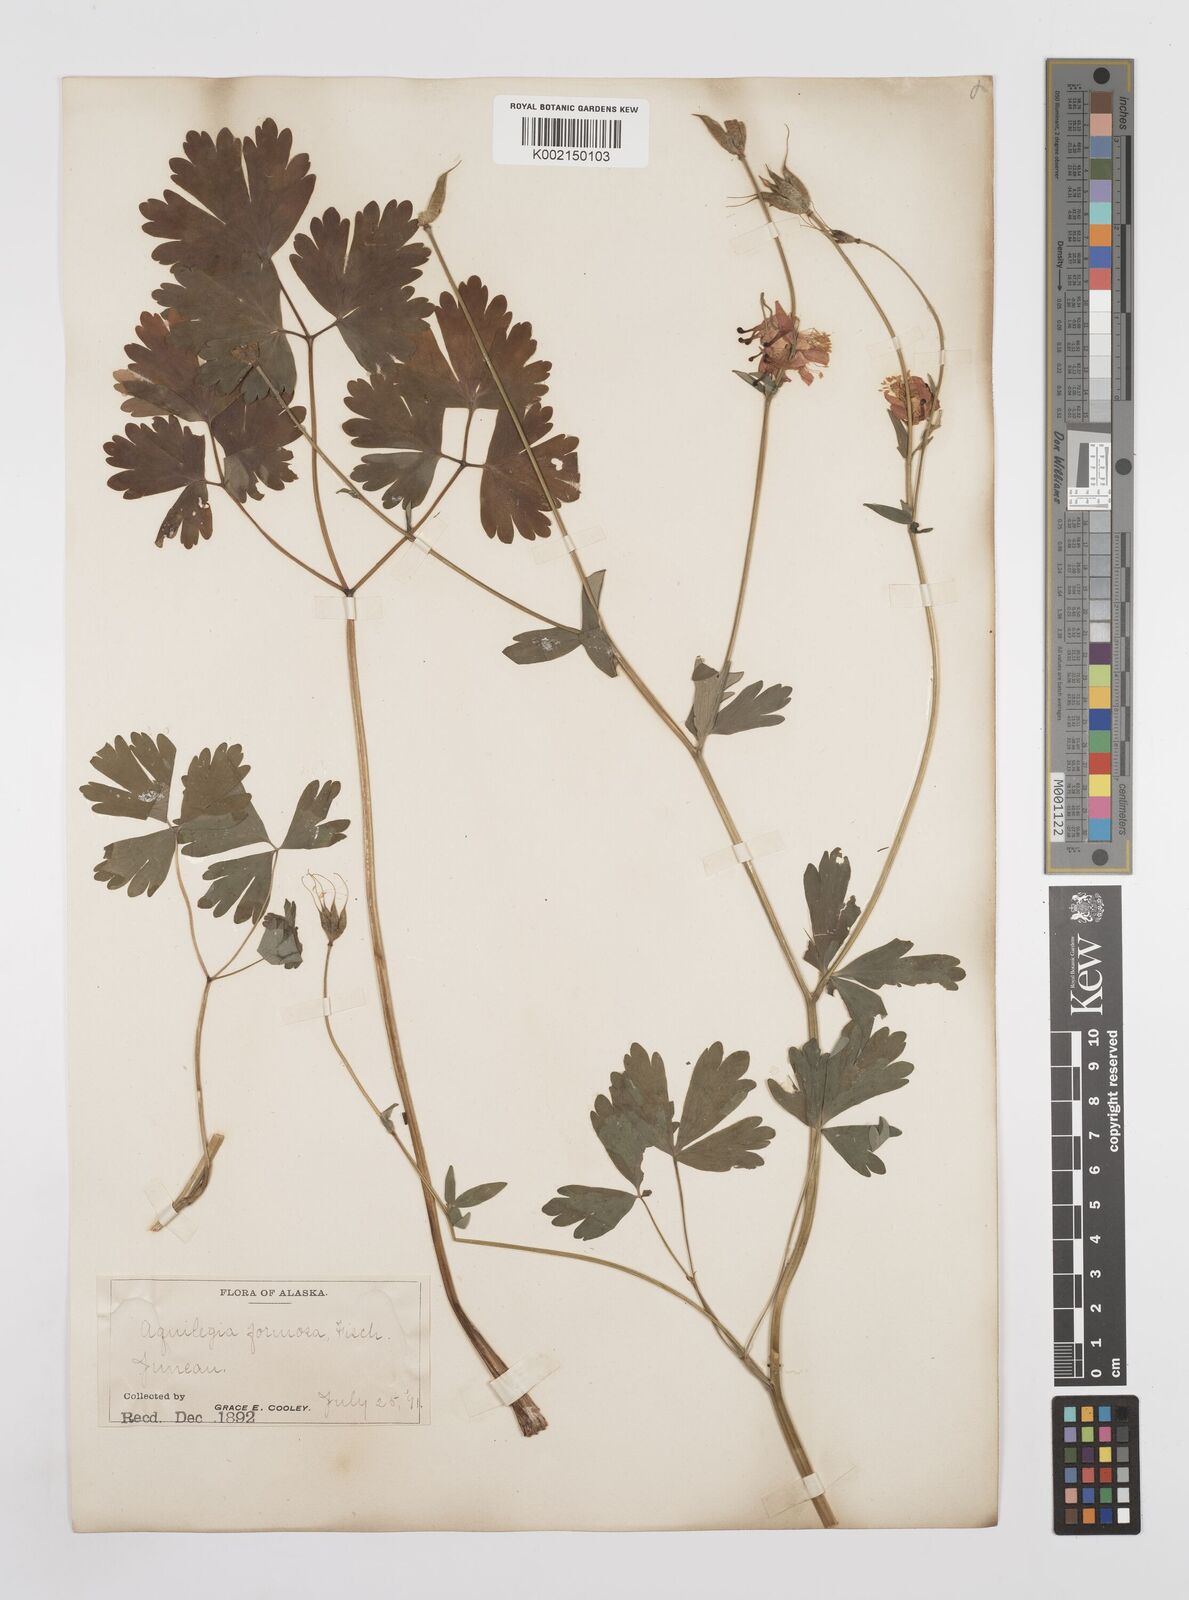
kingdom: Plantae
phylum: Tracheophyta
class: Magnoliopsida
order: Ranunculales
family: Ranunculaceae
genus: Aquilegia
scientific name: Aquilegia
